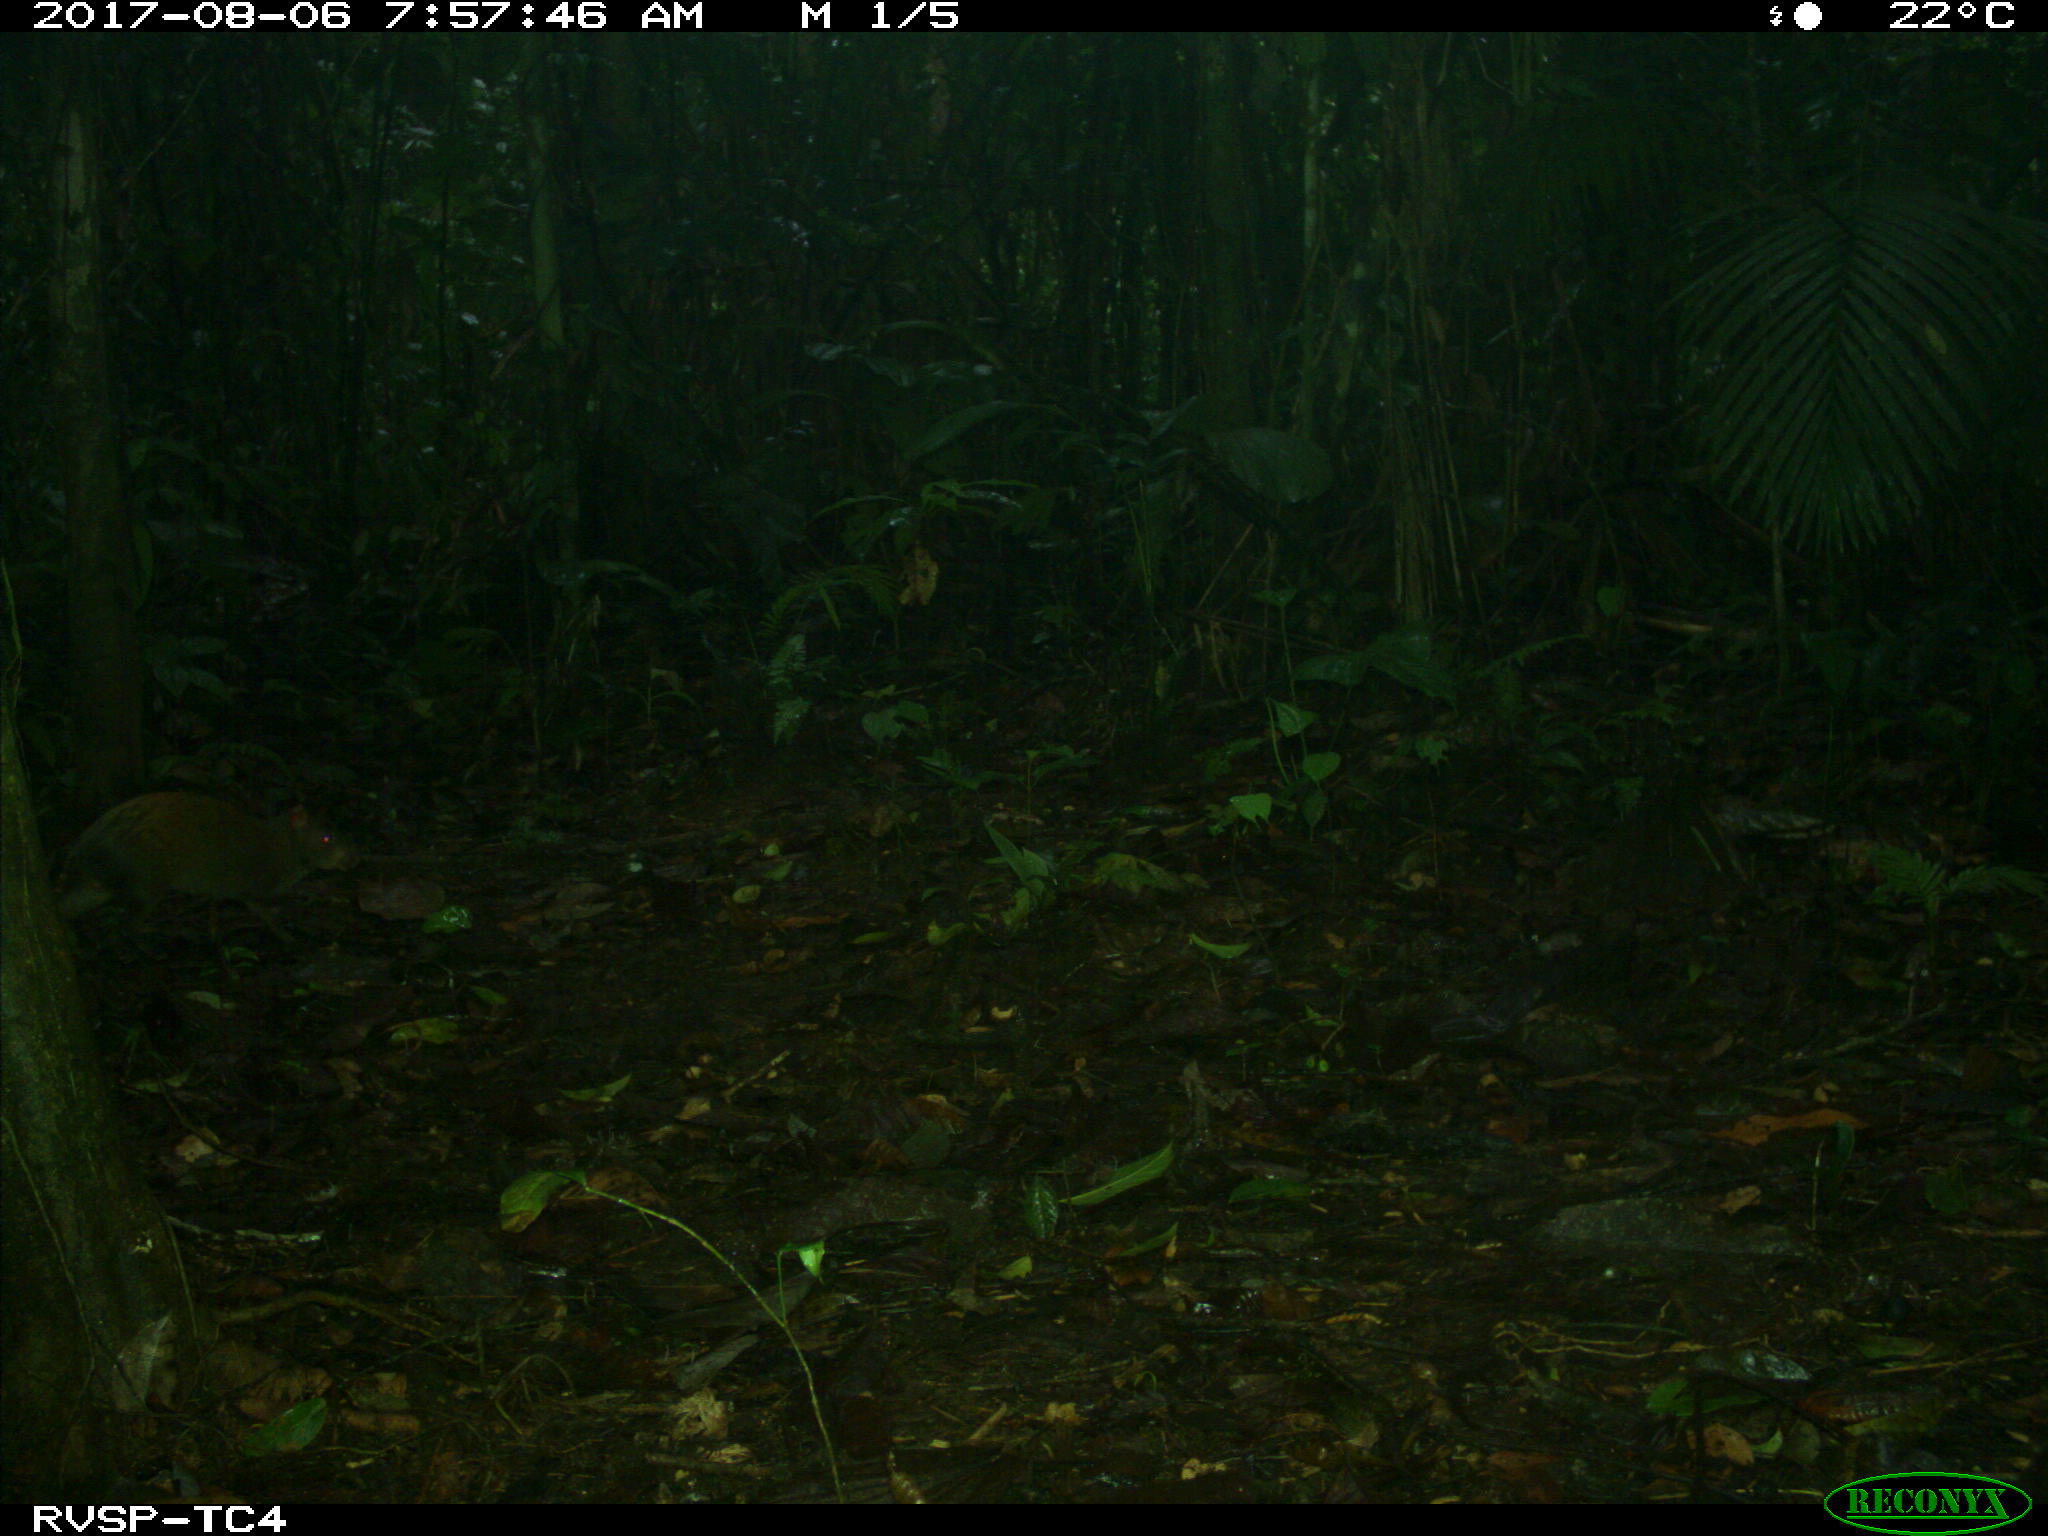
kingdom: Animalia
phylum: Chordata
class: Mammalia
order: Rodentia
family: Dasyproctidae
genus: Dasyprocta
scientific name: Dasyprocta punctata
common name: Central american agouti
